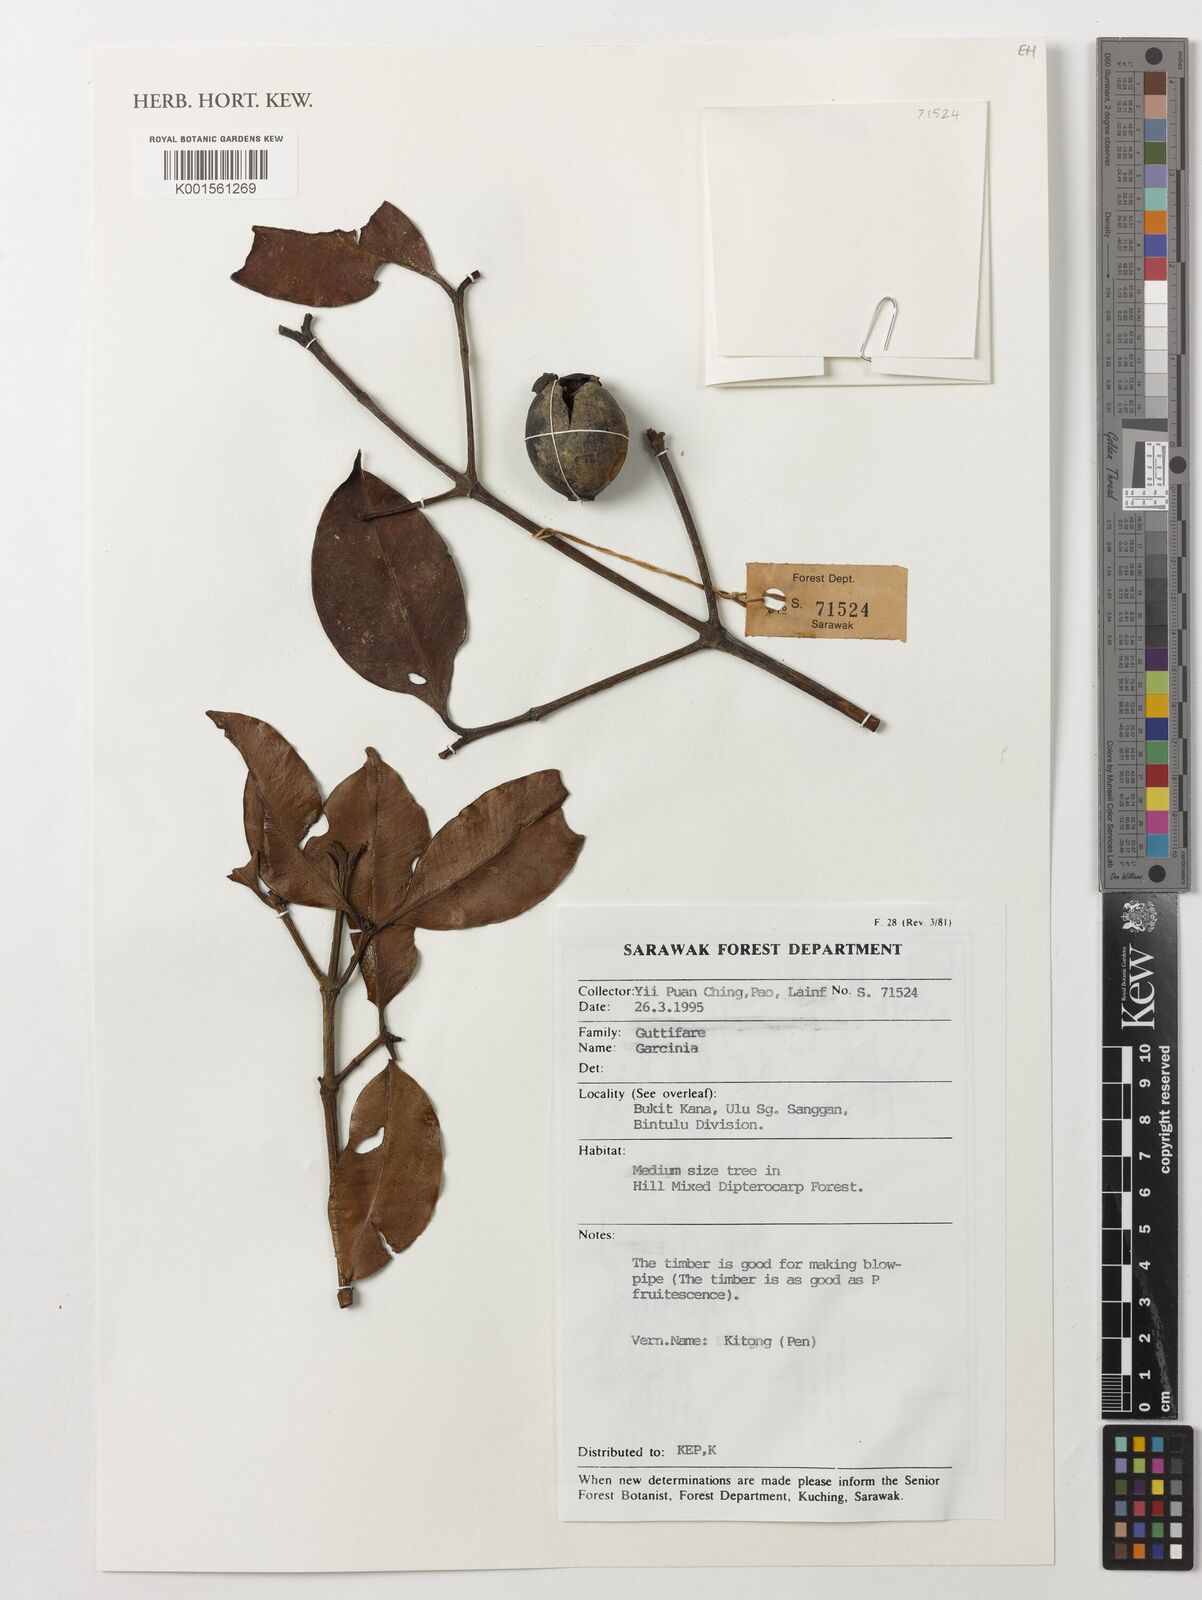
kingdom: Plantae
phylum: Tracheophyta
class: Magnoliopsida
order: Malpighiales
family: Clusiaceae
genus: Garcinia
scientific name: Garcinia
